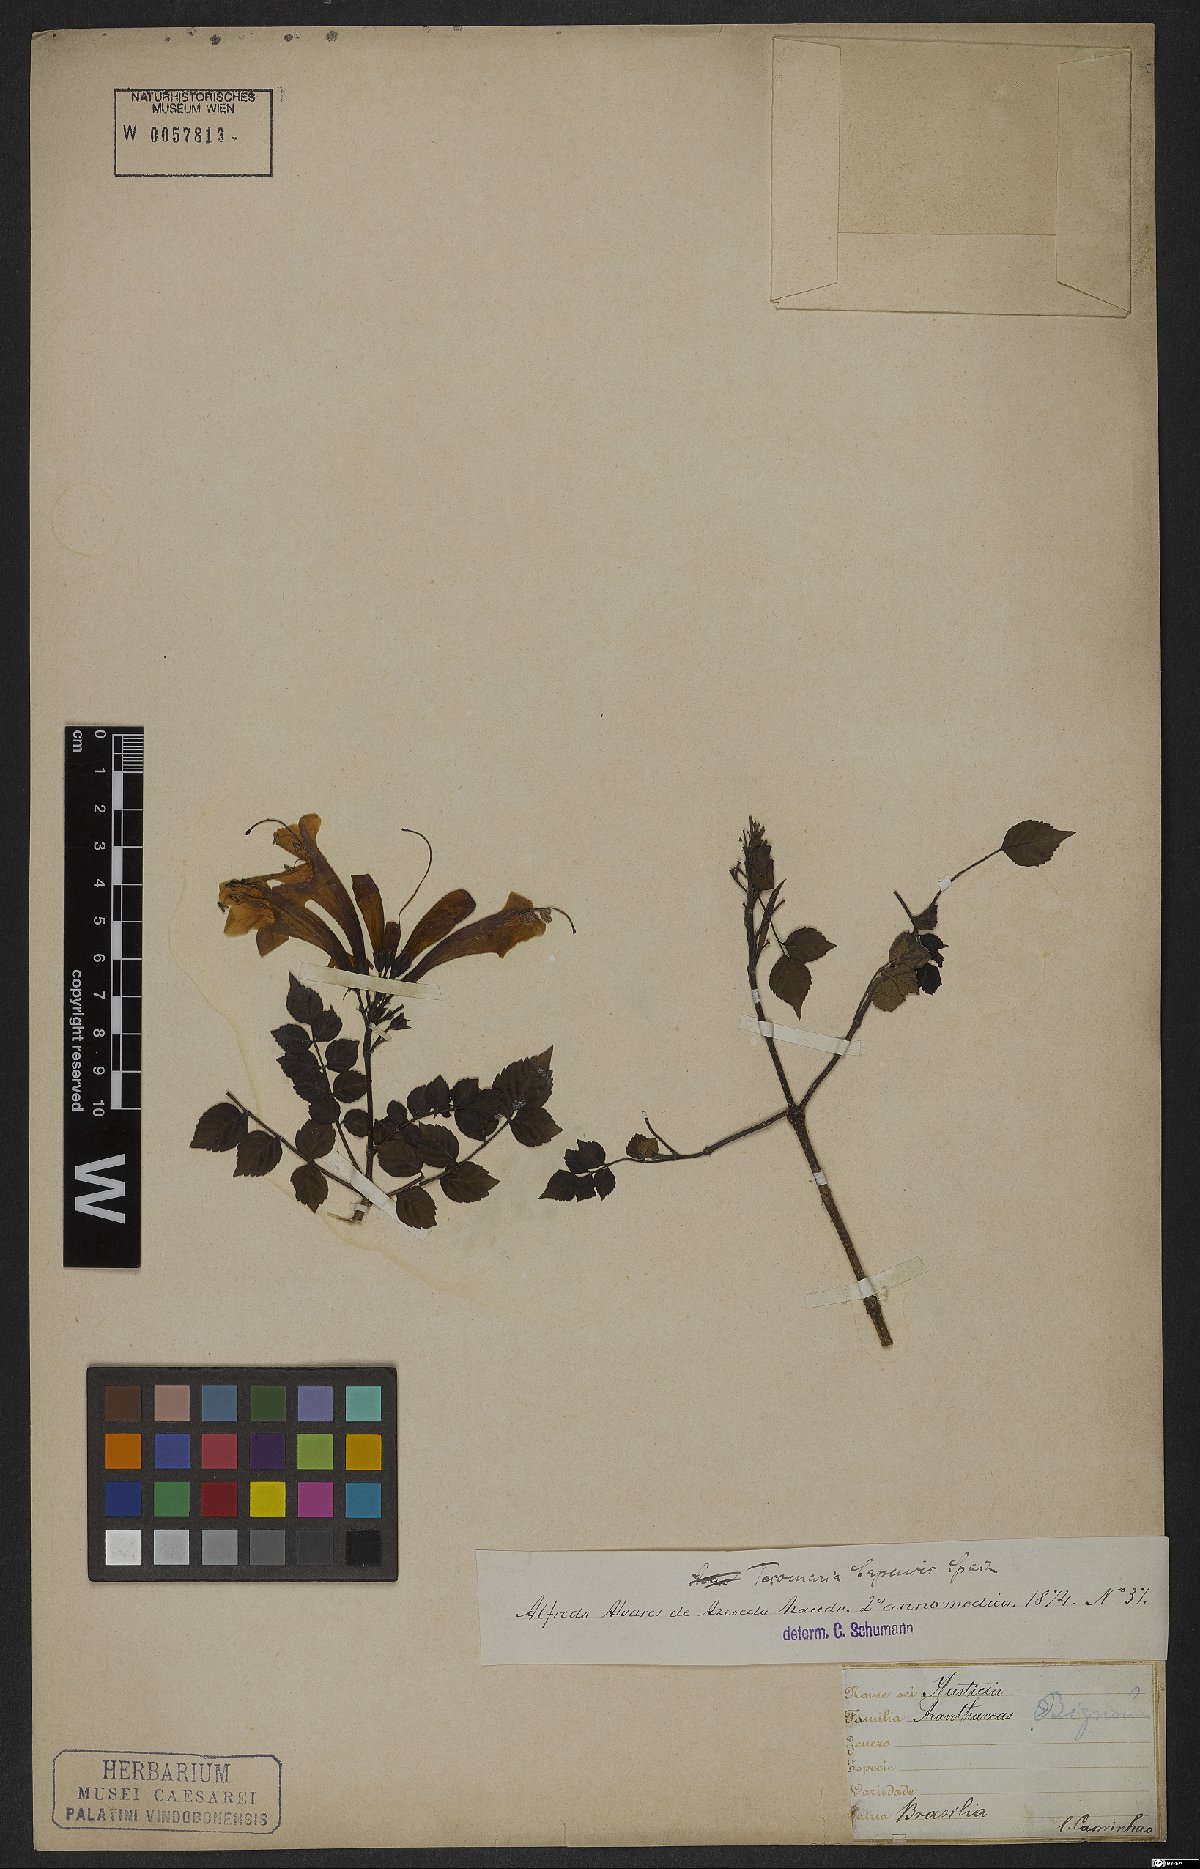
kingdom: Plantae
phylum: Tracheophyta
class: Magnoliopsida
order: Lamiales
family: Bignoniaceae
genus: Tecomaria
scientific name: Tecomaria capensis
